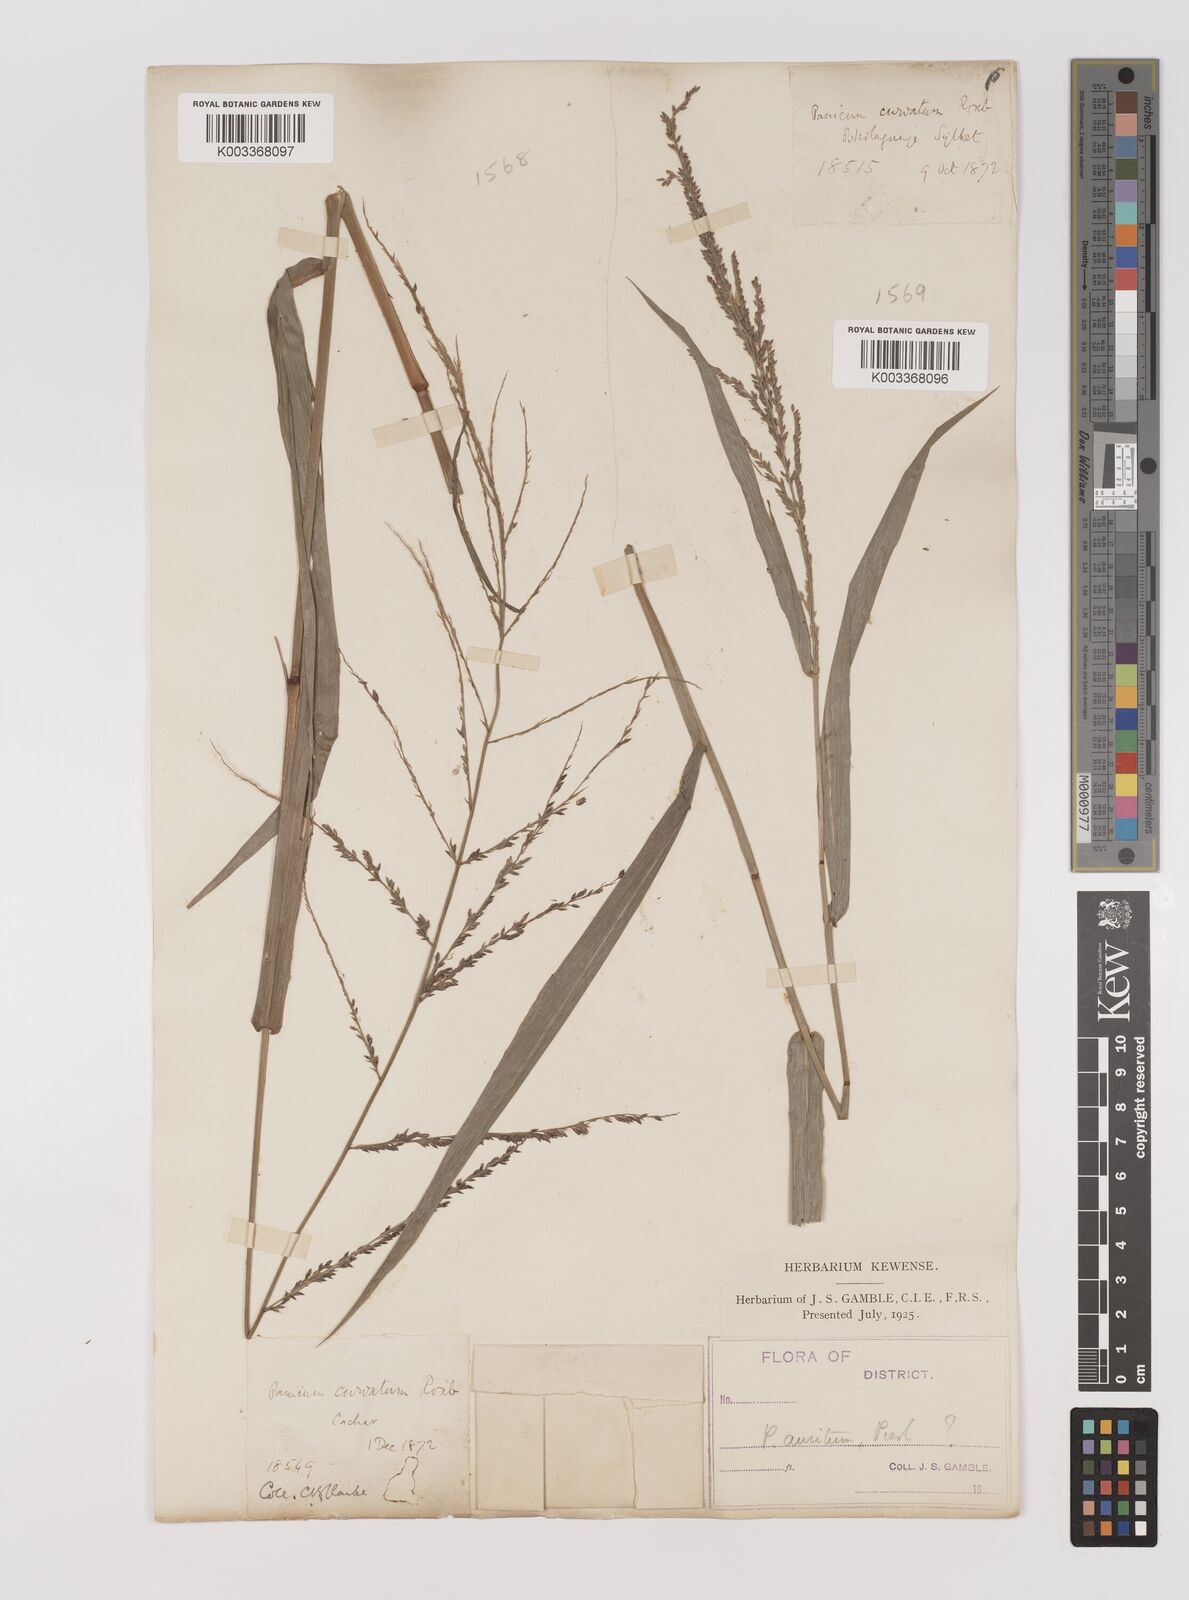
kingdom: Plantae
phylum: Tracheophyta
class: Liliopsida
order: Poales
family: Poaceae
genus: Hymenachne
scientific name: Hymenachne aurita
